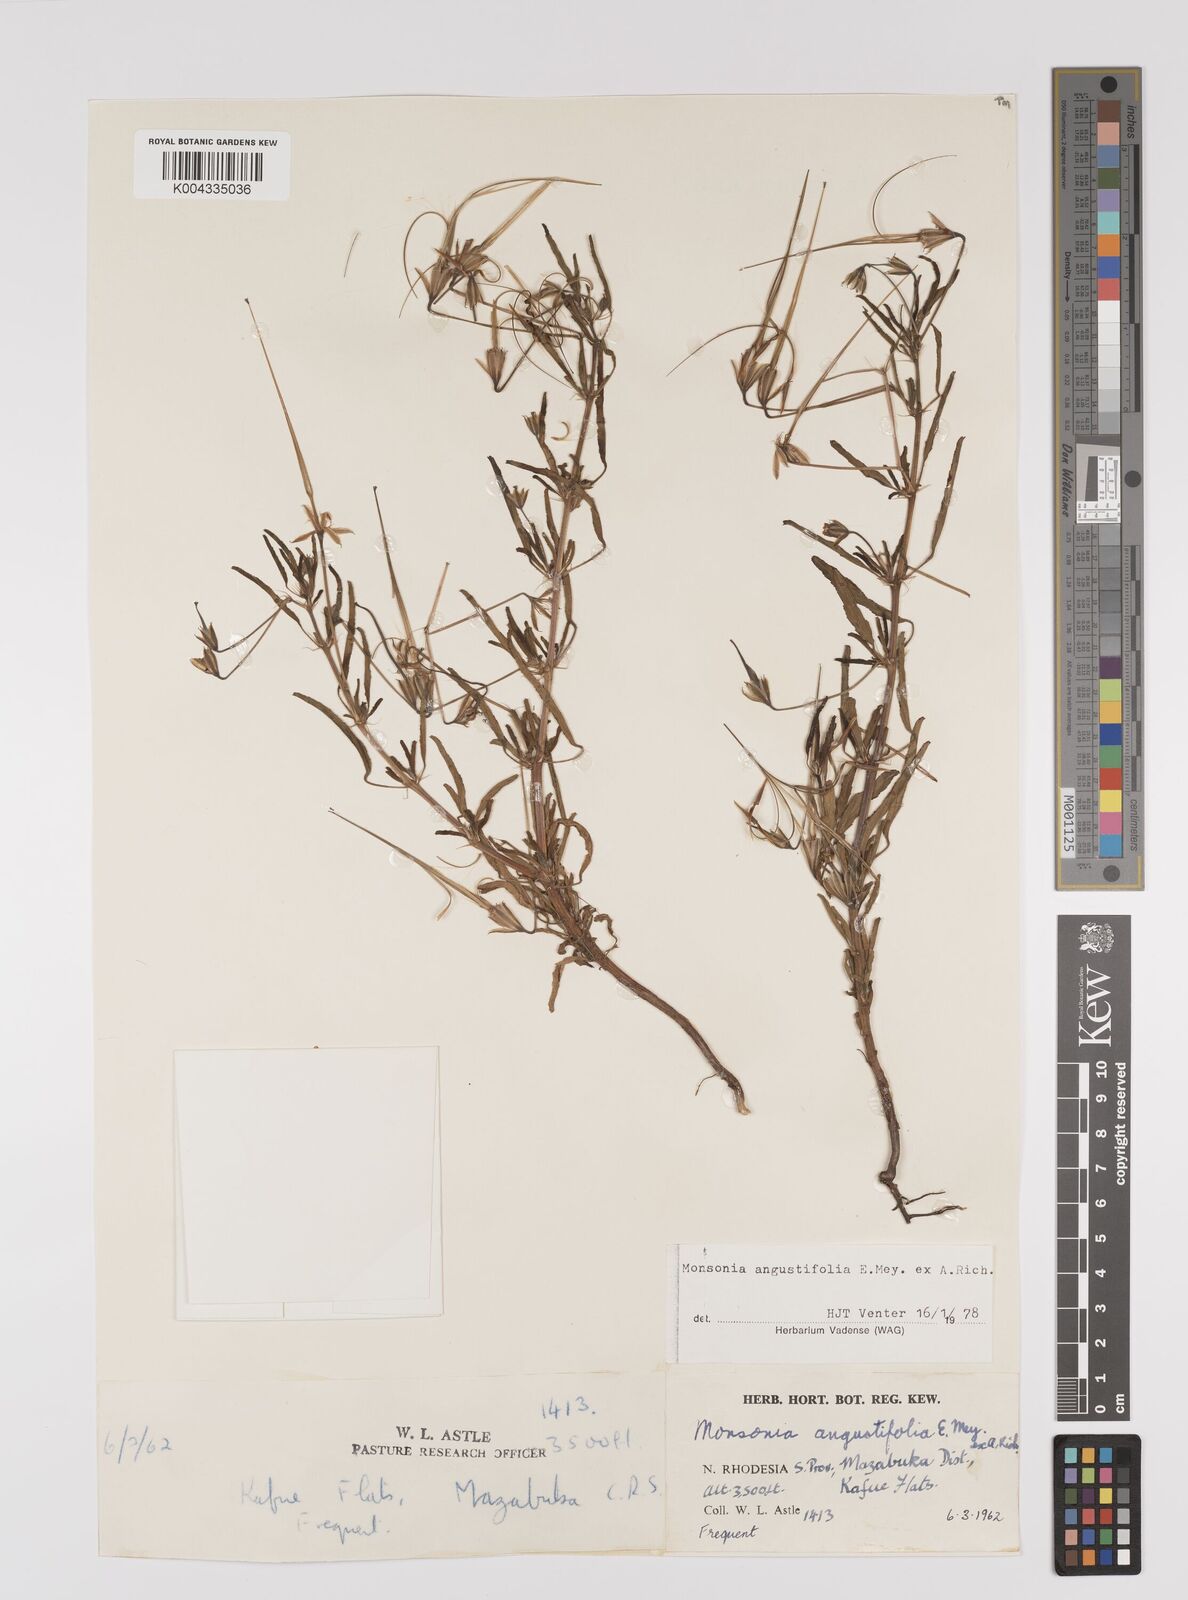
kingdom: Plantae
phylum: Tracheophyta
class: Magnoliopsida
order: Geraniales
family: Geraniaceae
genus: Monsonia
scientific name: Monsonia angustifolia
